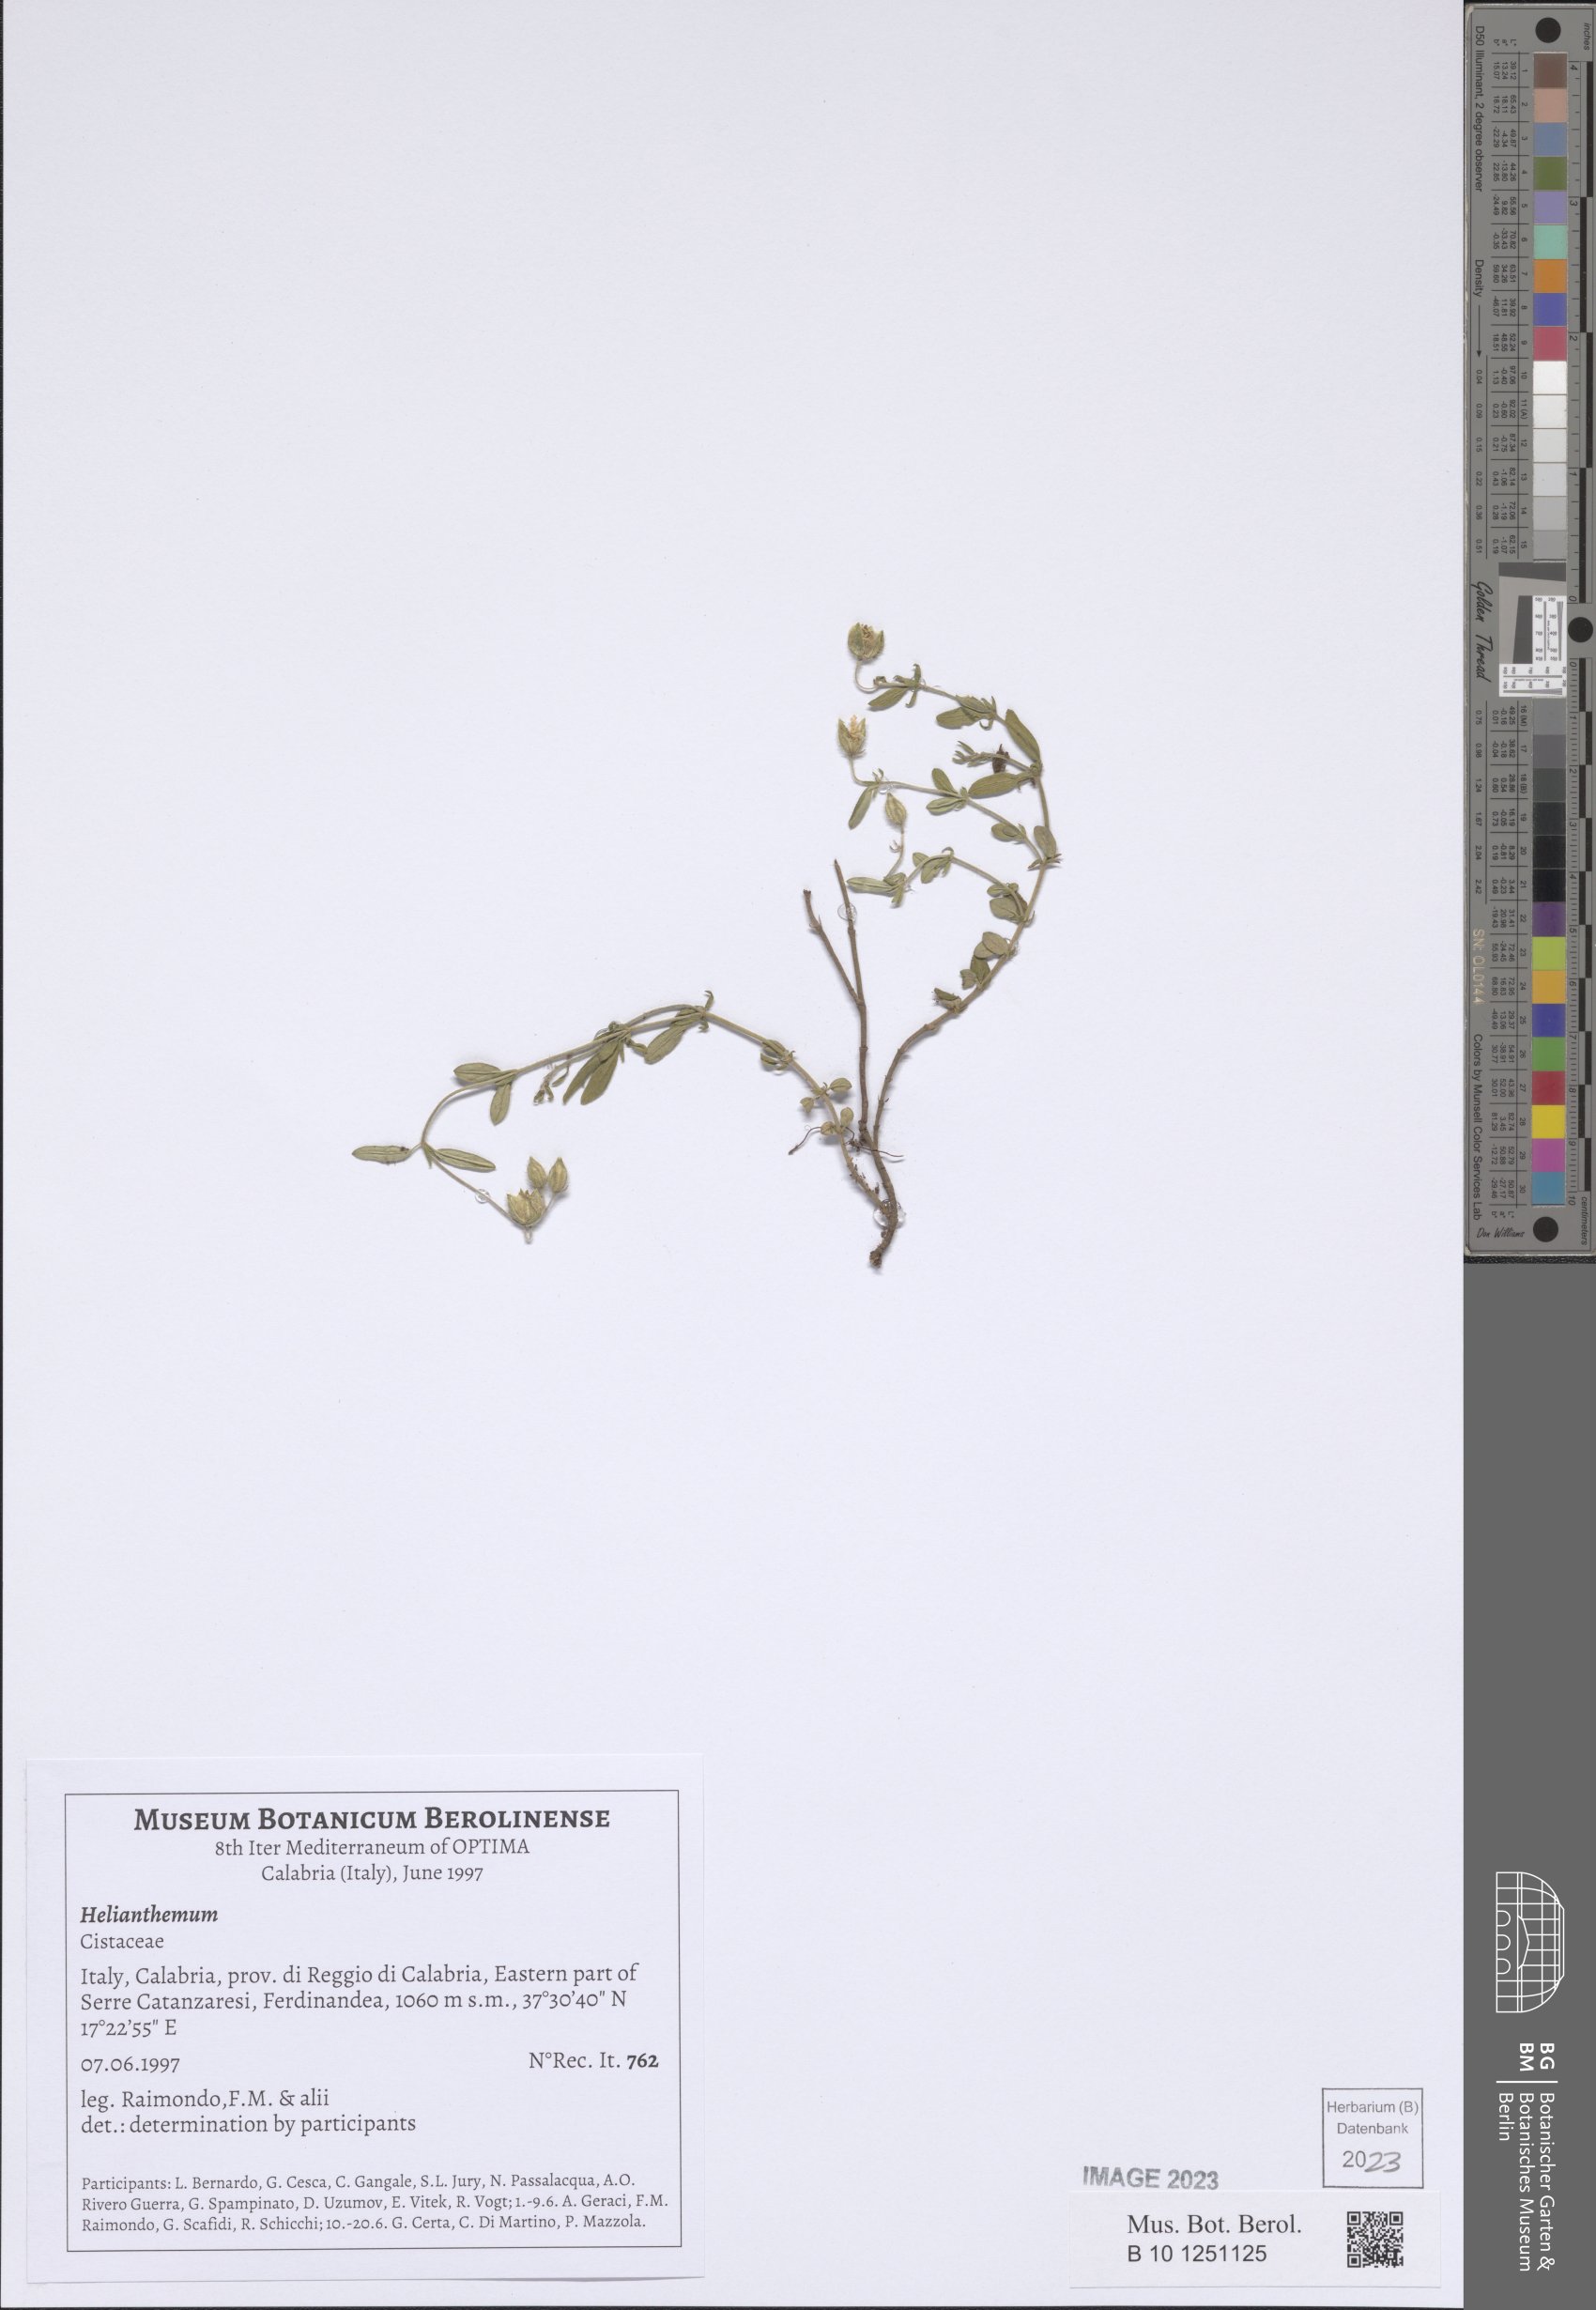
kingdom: Plantae
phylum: Tracheophyta
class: Magnoliopsida
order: Malvales
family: Cistaceae
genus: Helianthemum
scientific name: Helianthemum
